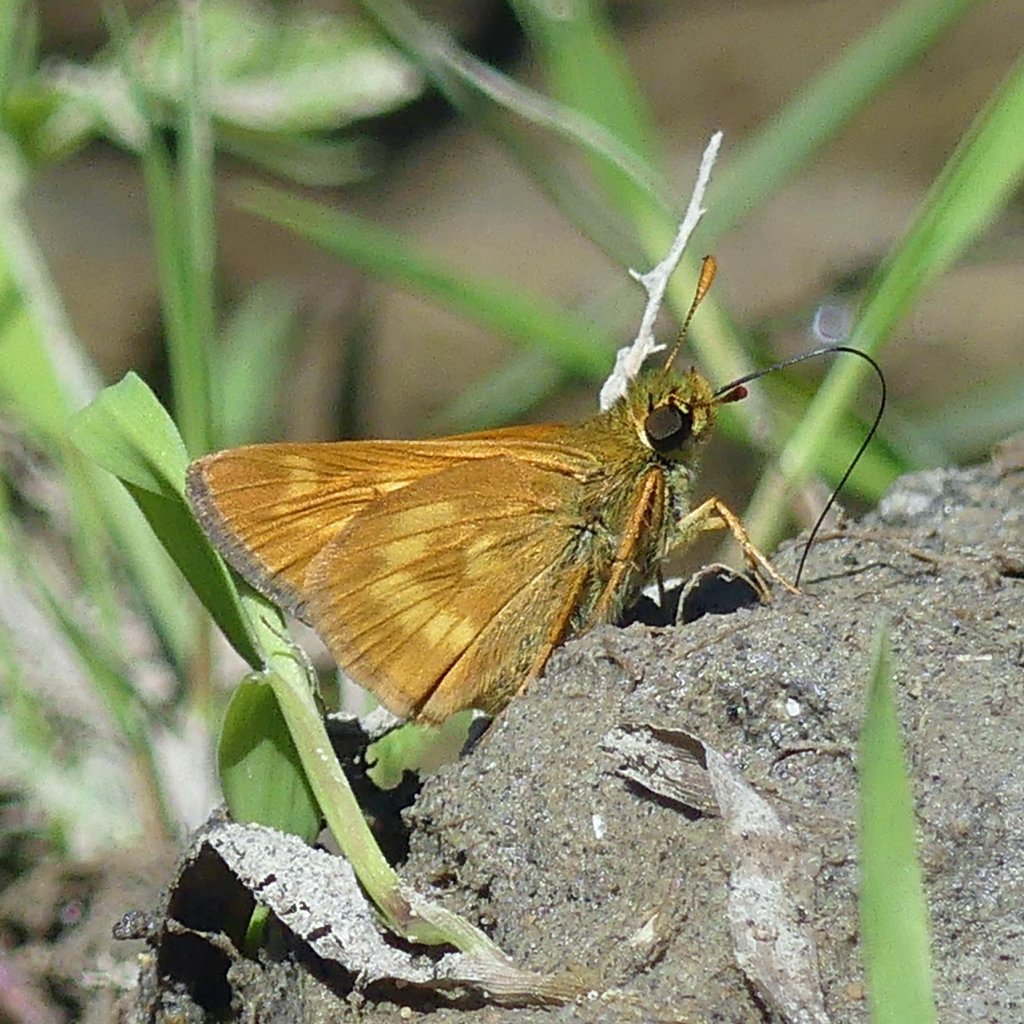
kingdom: Animalia
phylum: Arthropoda
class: Insecta
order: Lepidoptera
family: Hesperiidae
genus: Polites
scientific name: Polites
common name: Long Dash Skipper
